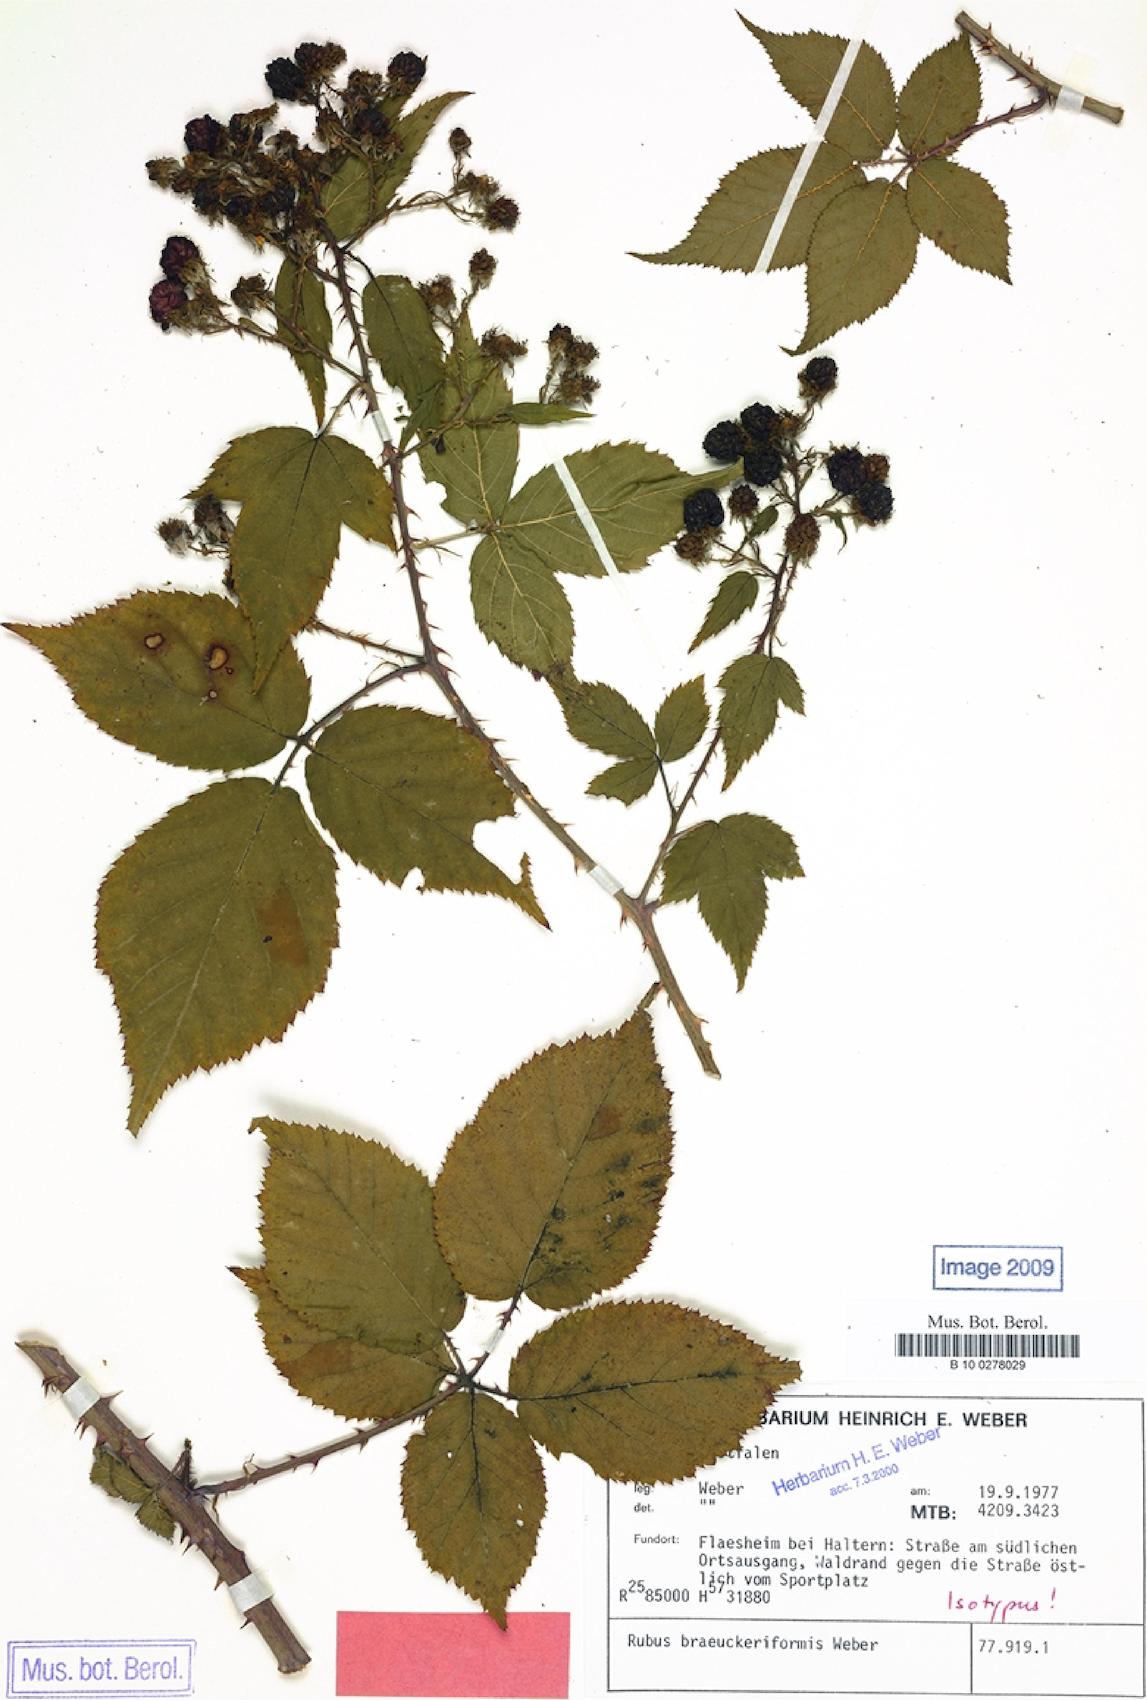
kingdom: Plantae
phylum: Tracheophyta
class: Magnoliopsida
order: Rosales
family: Rosaceae
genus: Rubus
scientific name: Rubus braeuckeriformis
